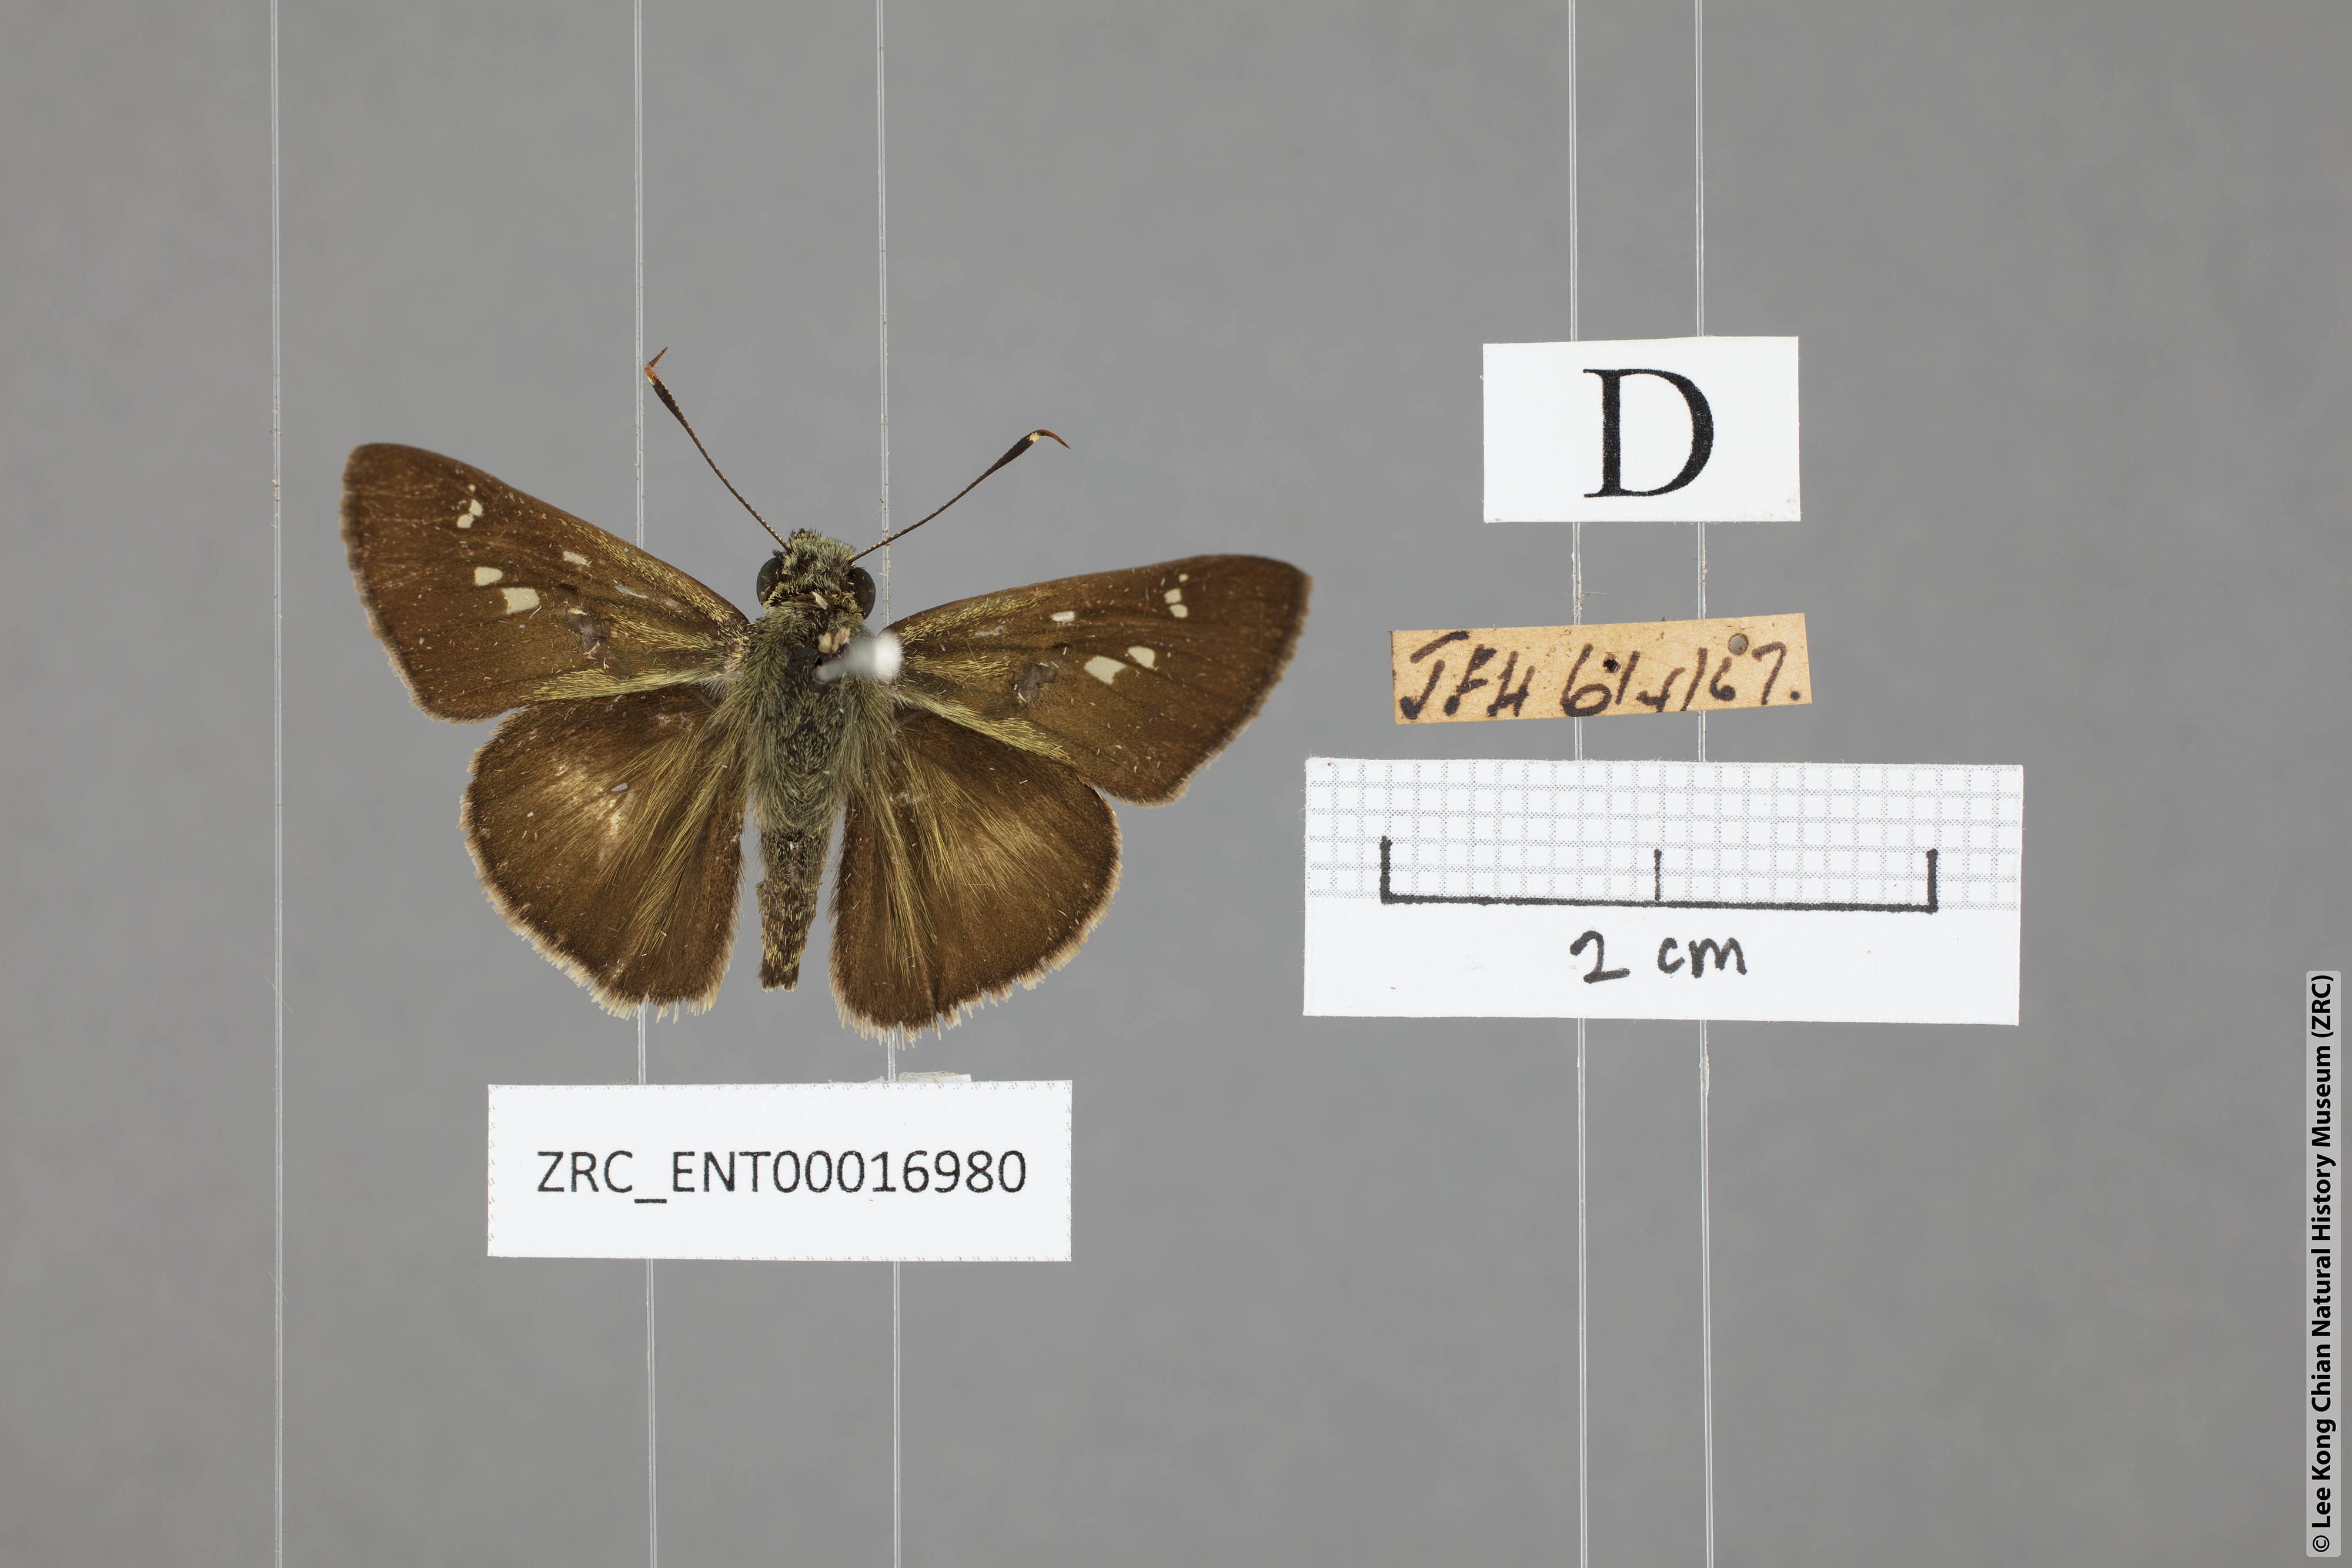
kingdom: Animalia
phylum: Arthropoda
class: Insecta
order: Lepidoptera
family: Hesperiidae
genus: Halpe
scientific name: Halpe elana
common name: Narrow-banded ace
